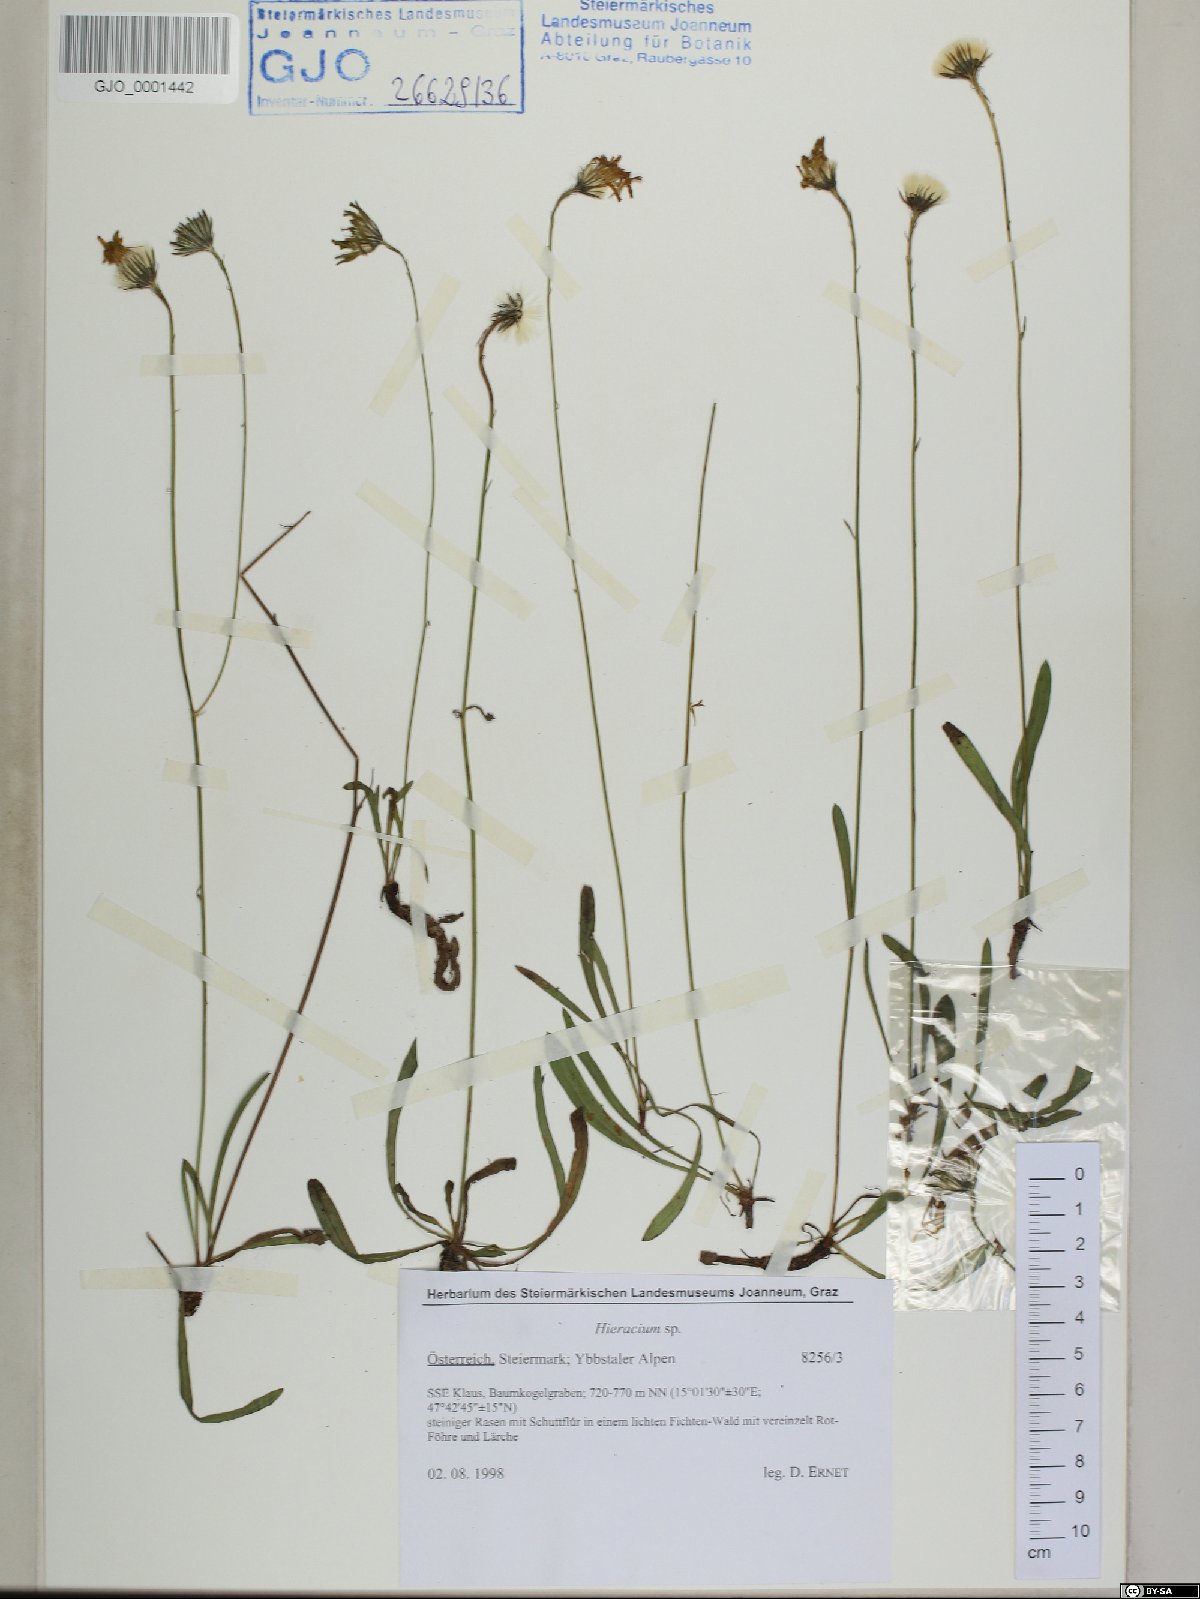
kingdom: Plantae
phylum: Tracheophyta
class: Magnoliopsida
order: Asterales
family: Asteraceae
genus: Hieracium
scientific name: Hieracium
